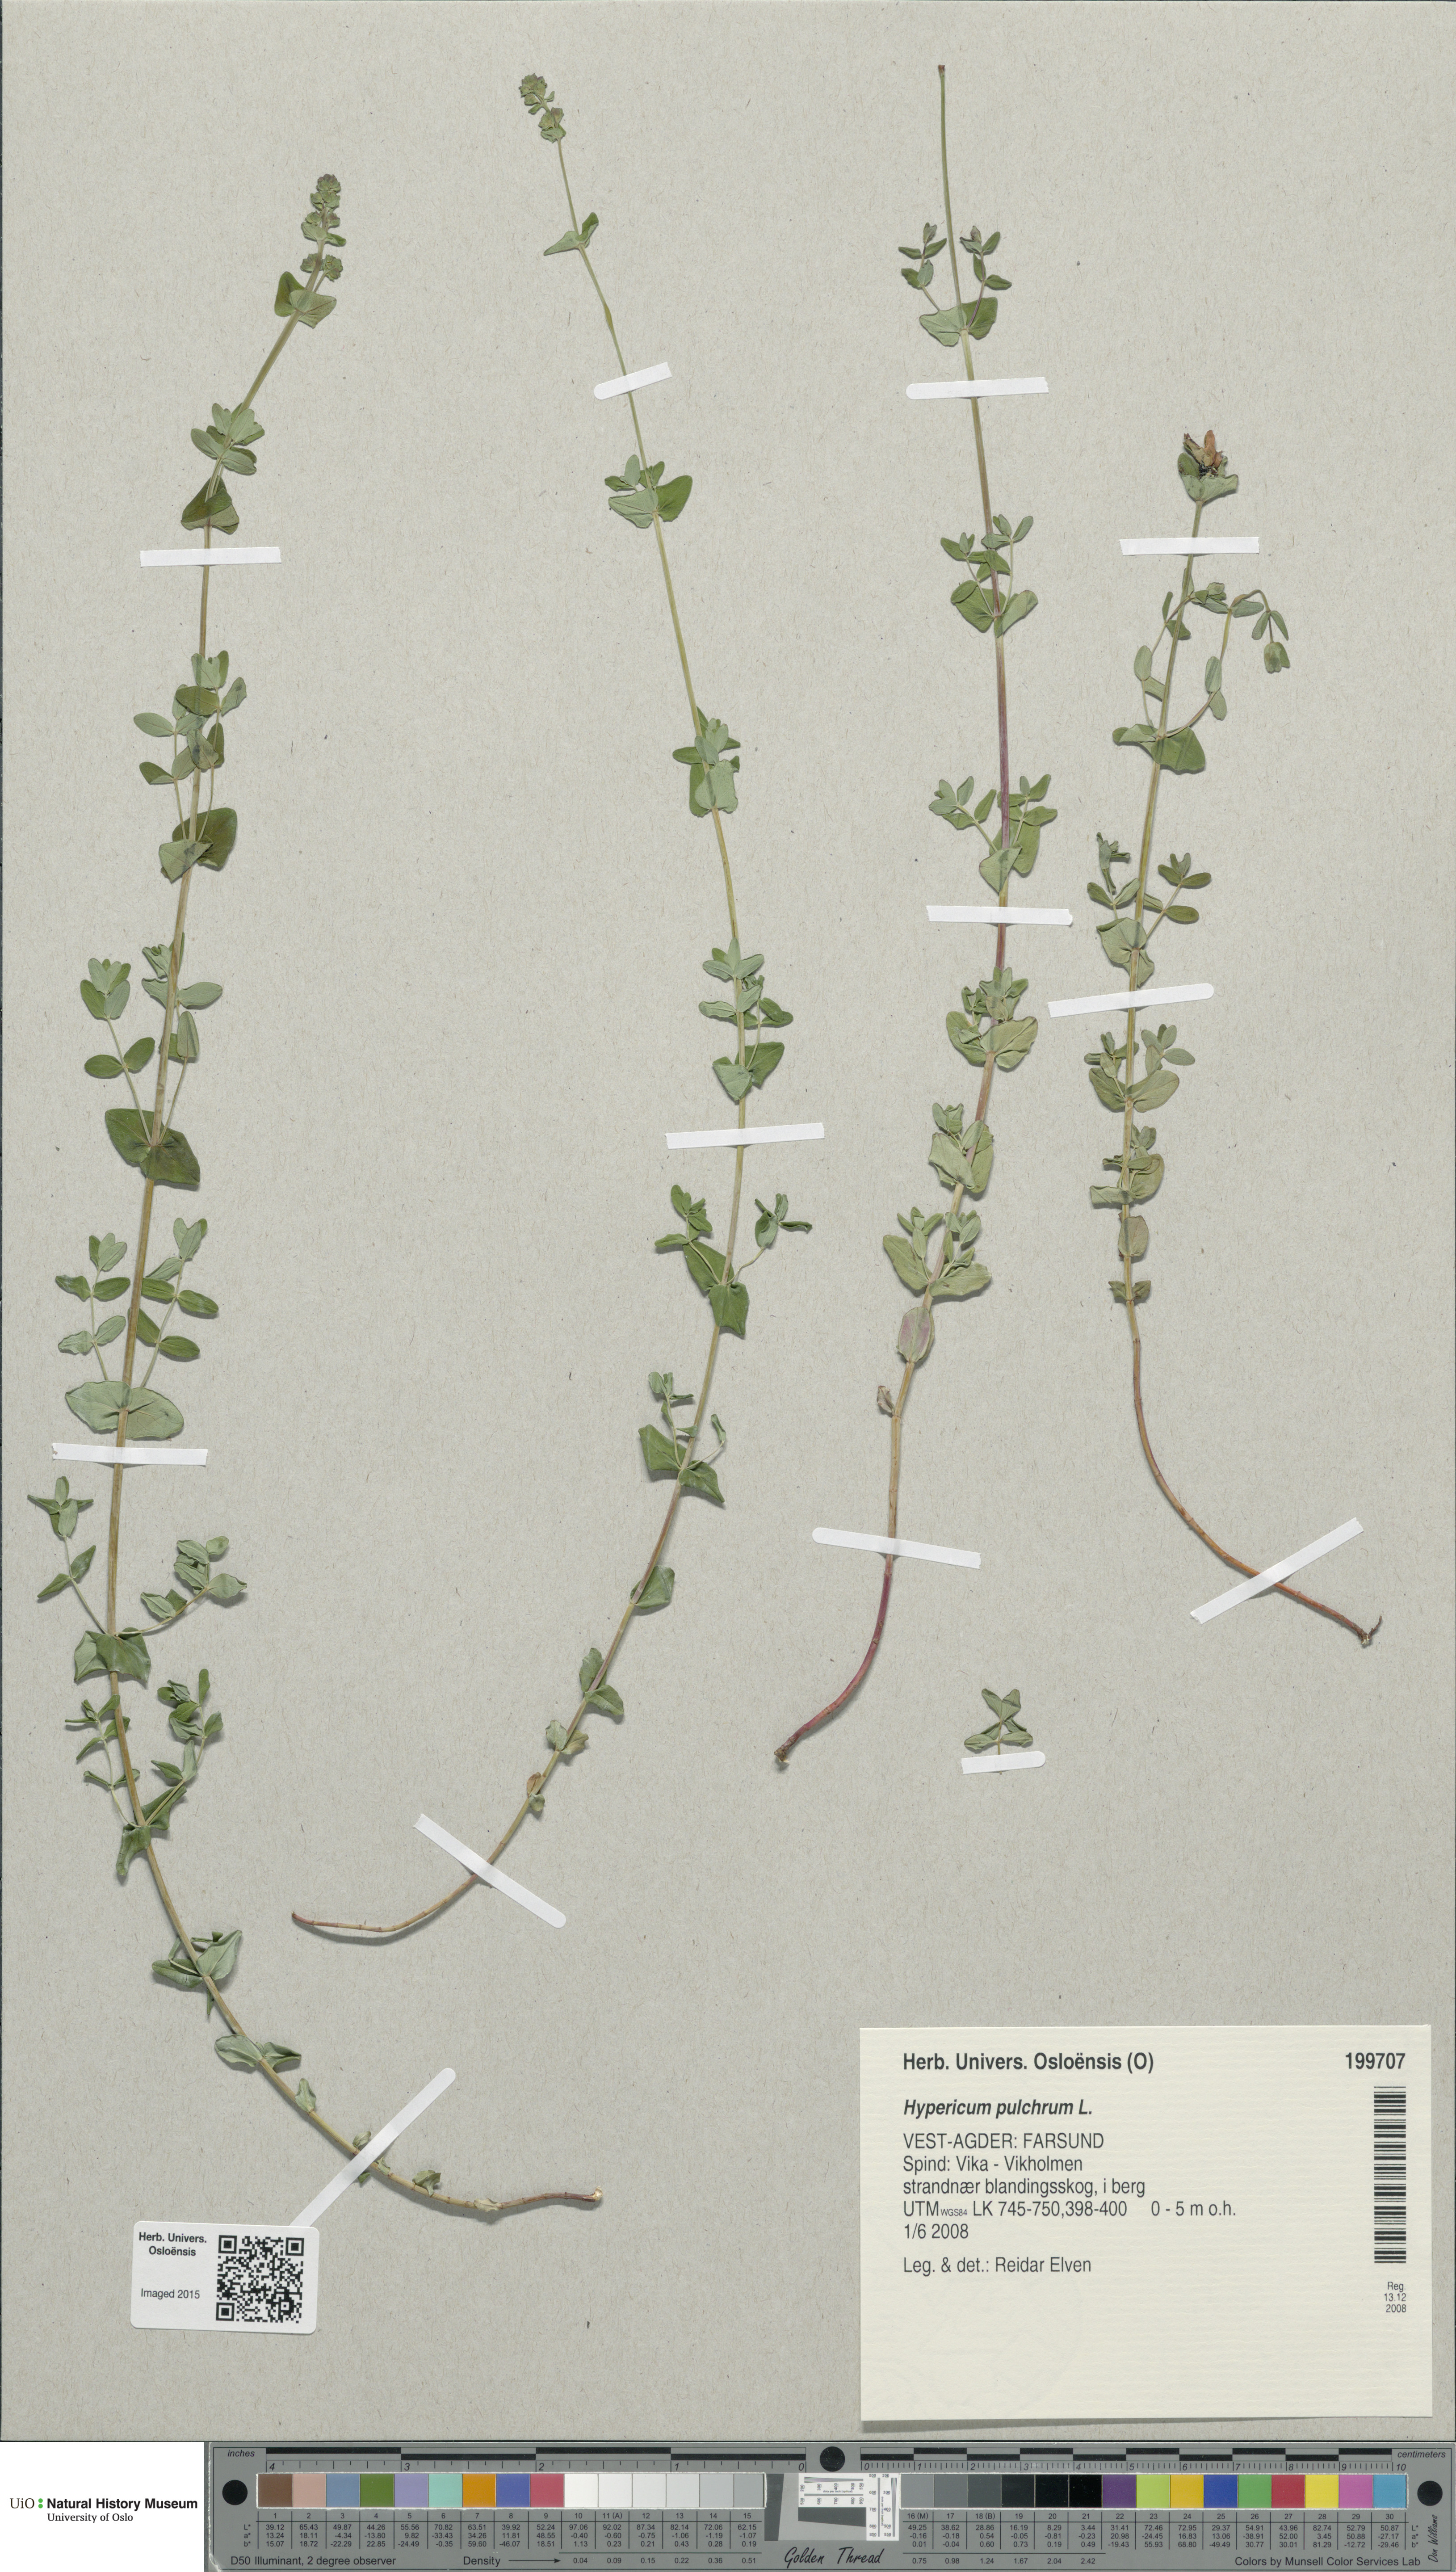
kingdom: Plantae
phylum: Tracheophyta
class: Magnoliopsida
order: Malpighiales
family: Hypericaceae
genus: Hypericum
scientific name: Hypericum pulchrum
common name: Slender st. john's-wort
